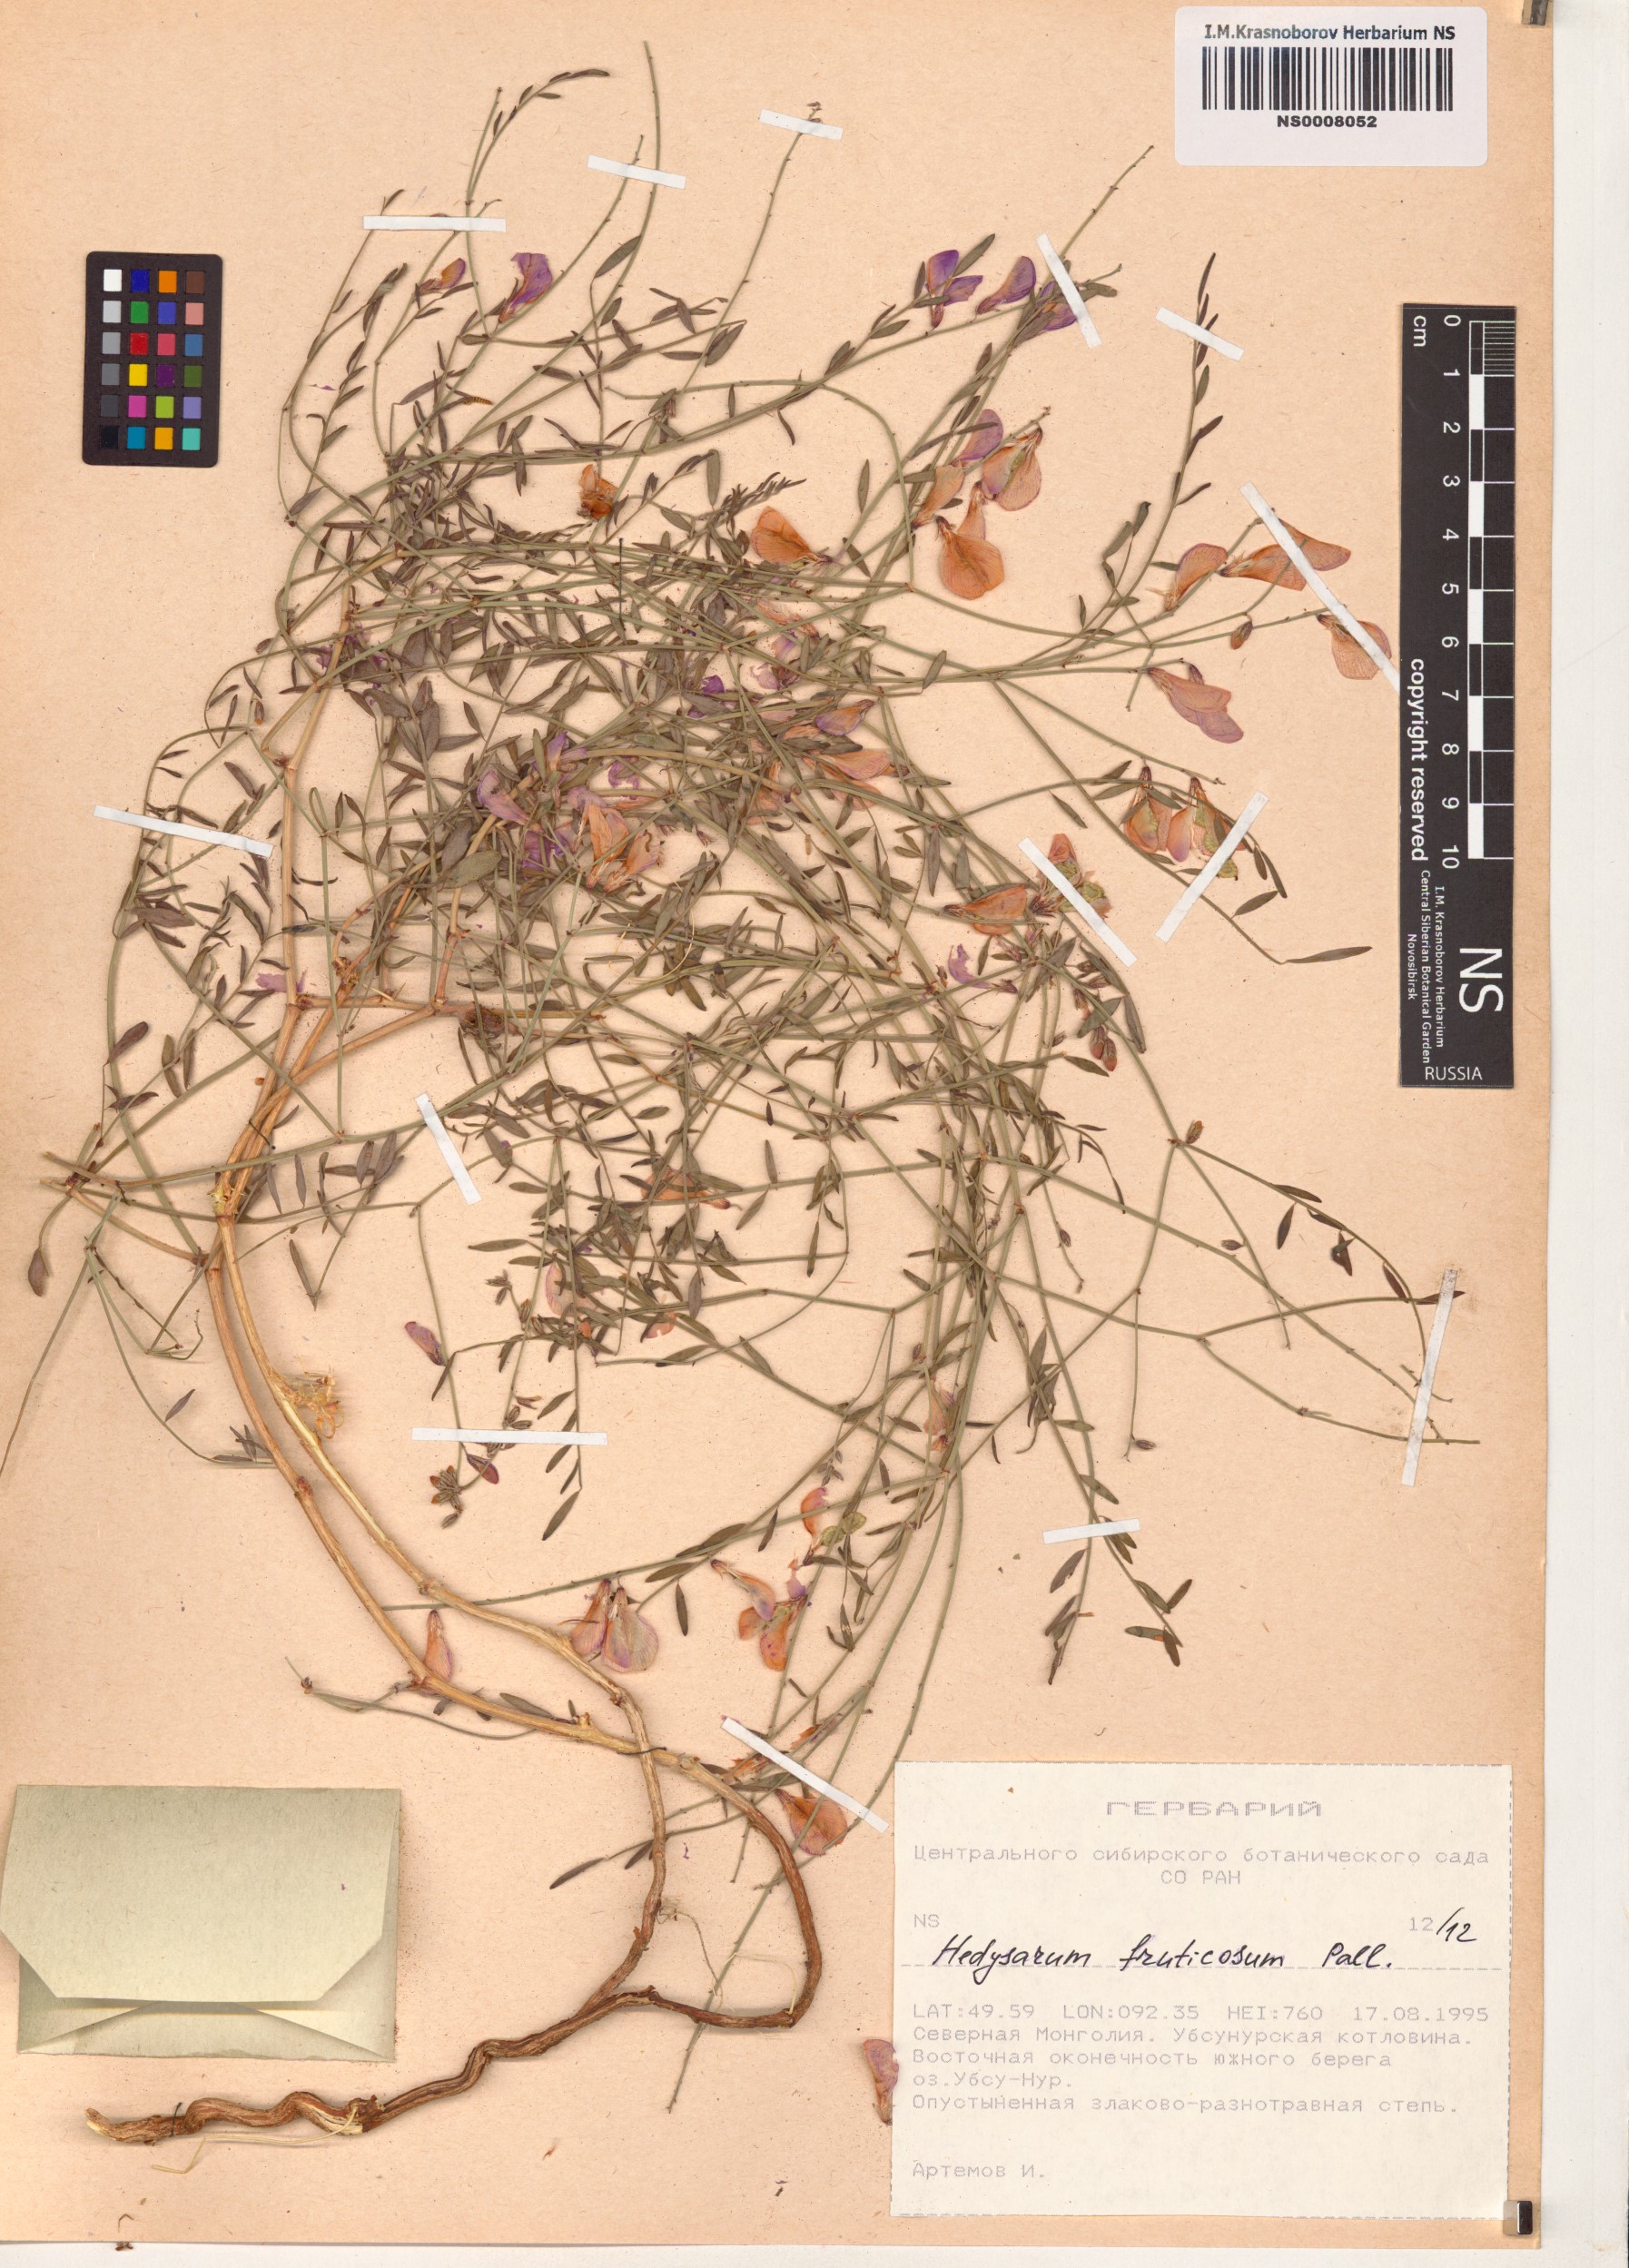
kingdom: Plantae
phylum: Tracheophyta
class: Magnoliopsida
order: Fabales
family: Fabaceae
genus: Corethrodendron
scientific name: Corethrodendron fruticosum
